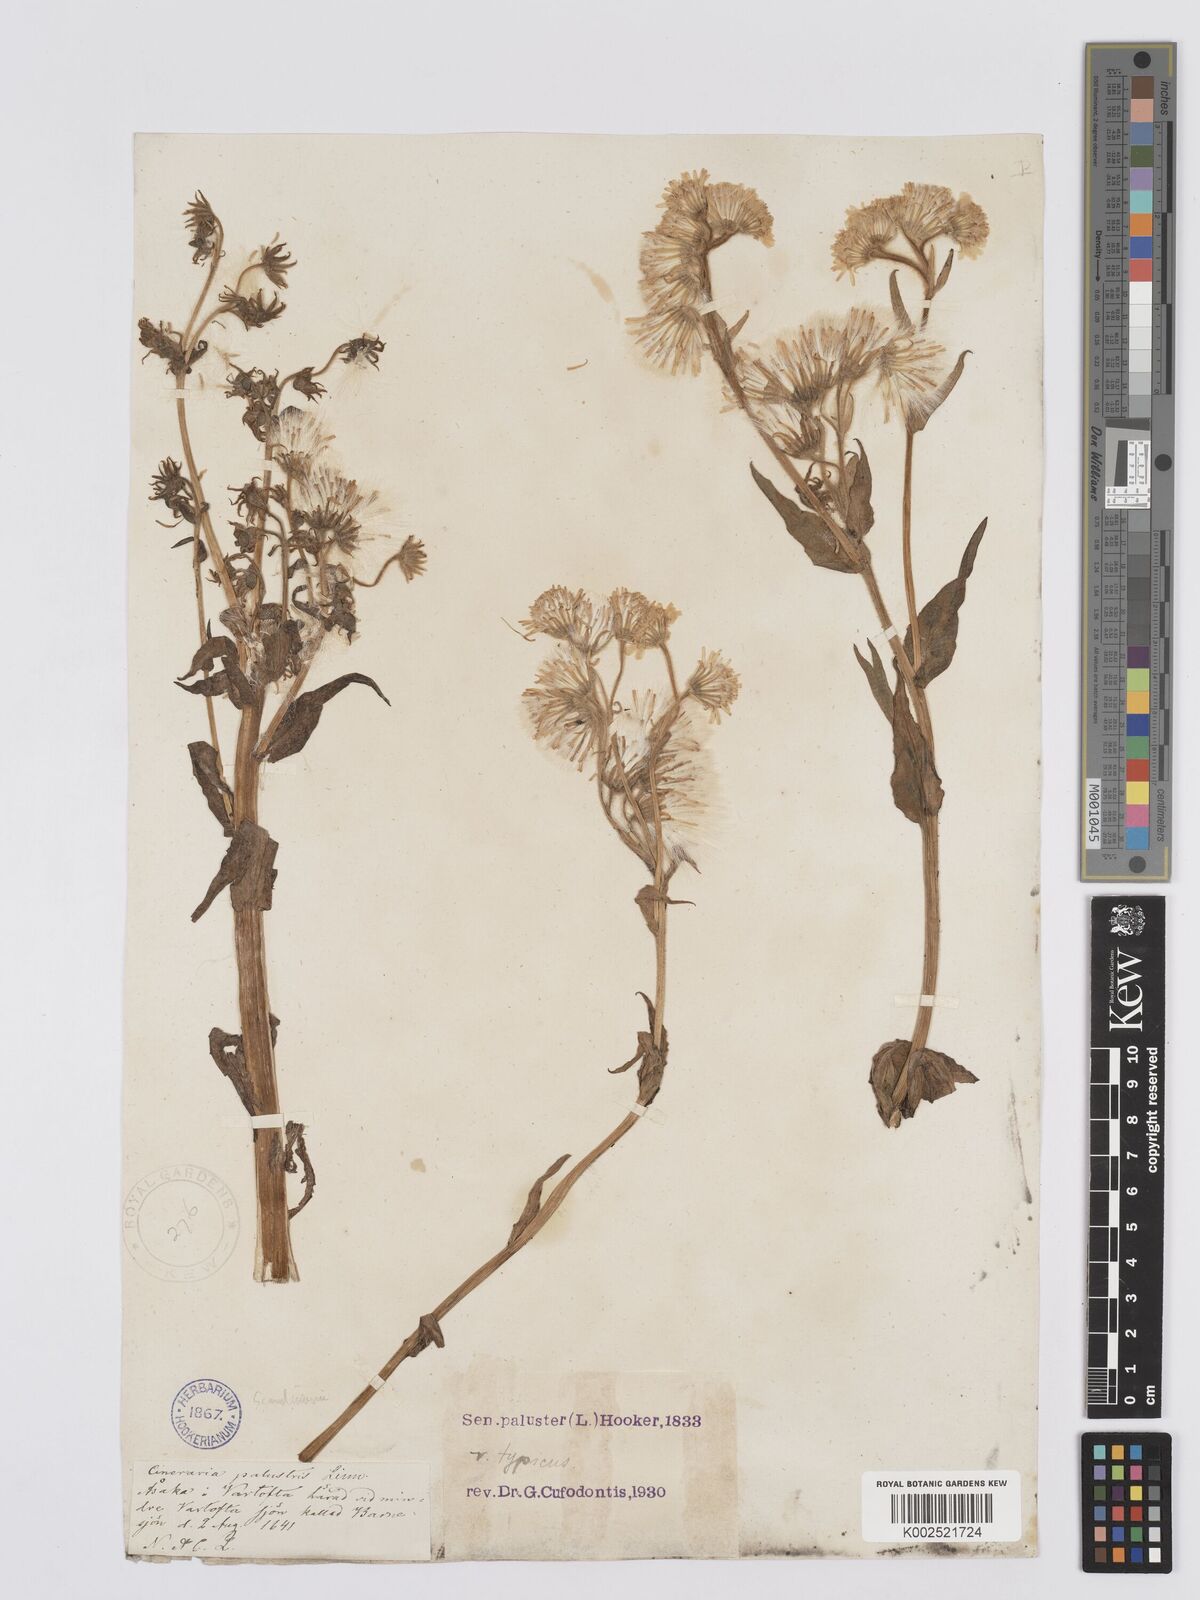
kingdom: Plantae
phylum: Tracheophyta
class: Magnoliopsida
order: Asterales
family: Asteraceae
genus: Tephroseris
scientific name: Tephroseris palustris
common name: Marsh fleawort
